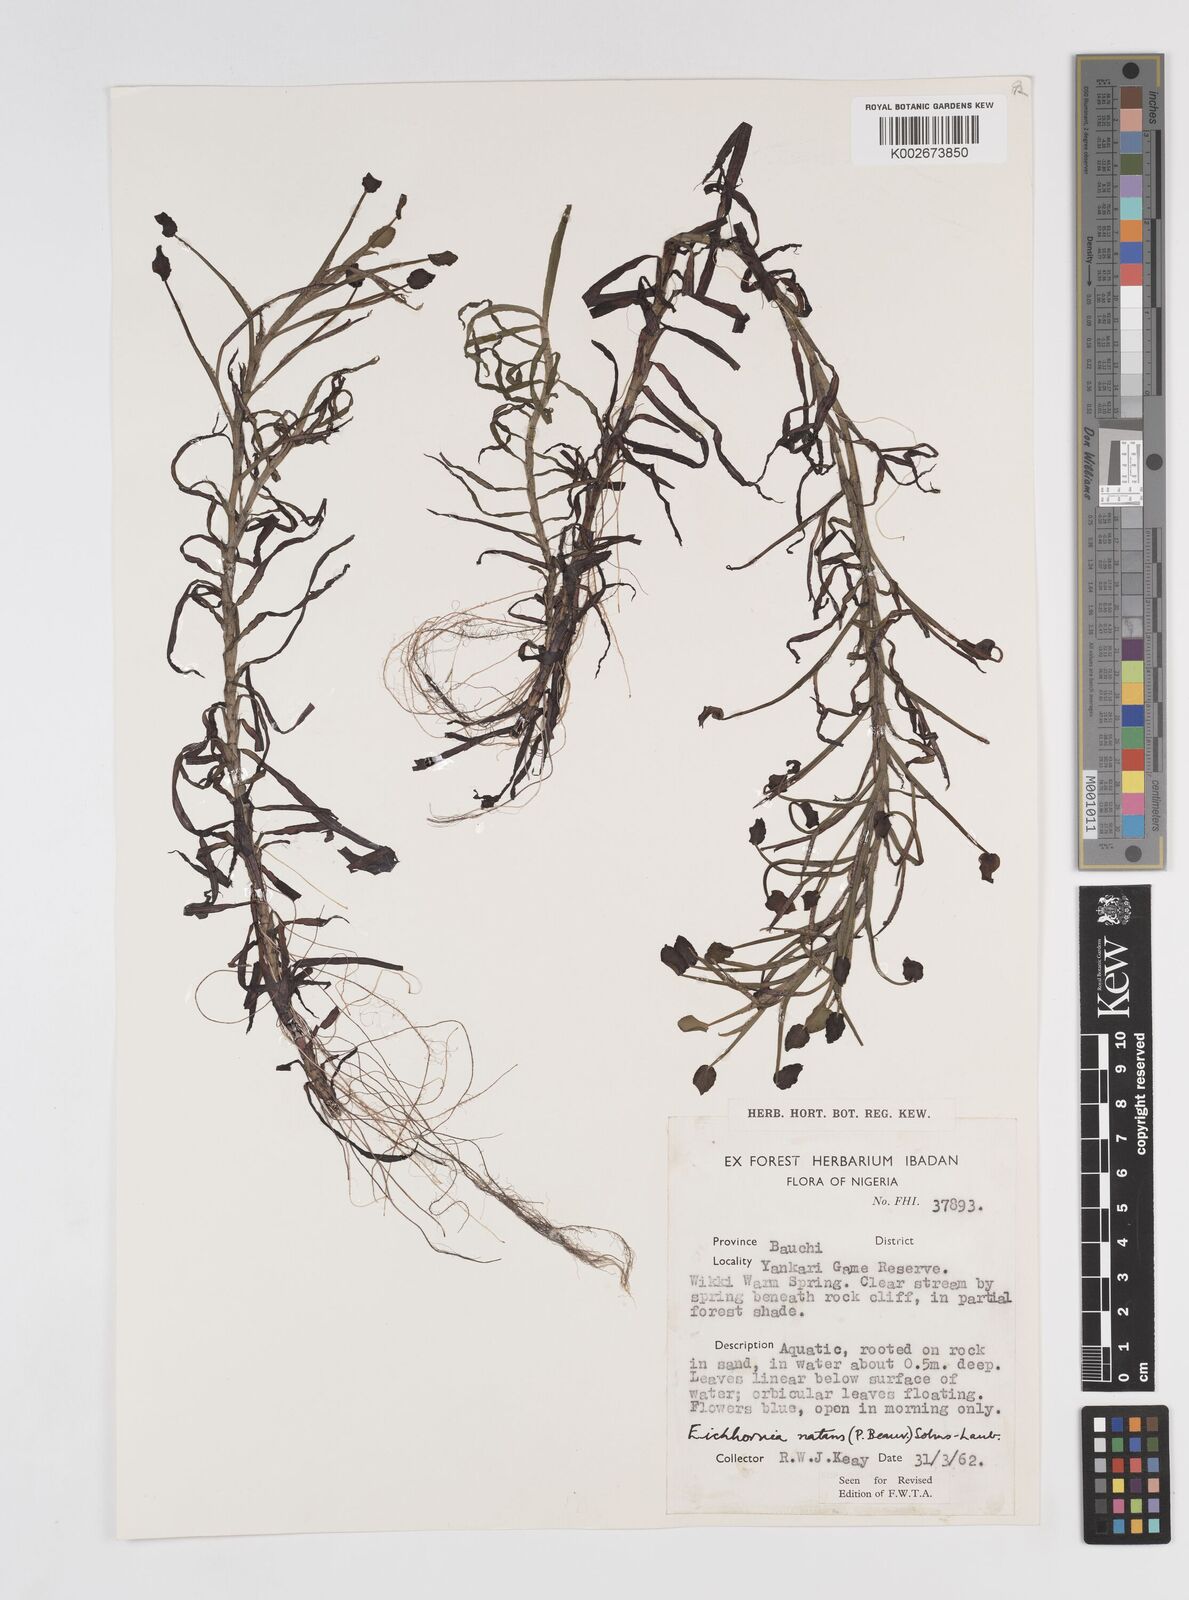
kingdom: Plantae
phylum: Tracheophyta
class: Liliopsida
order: Commelinales
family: Pontederiaceae
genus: Pontederia
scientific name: Pontederia natans
